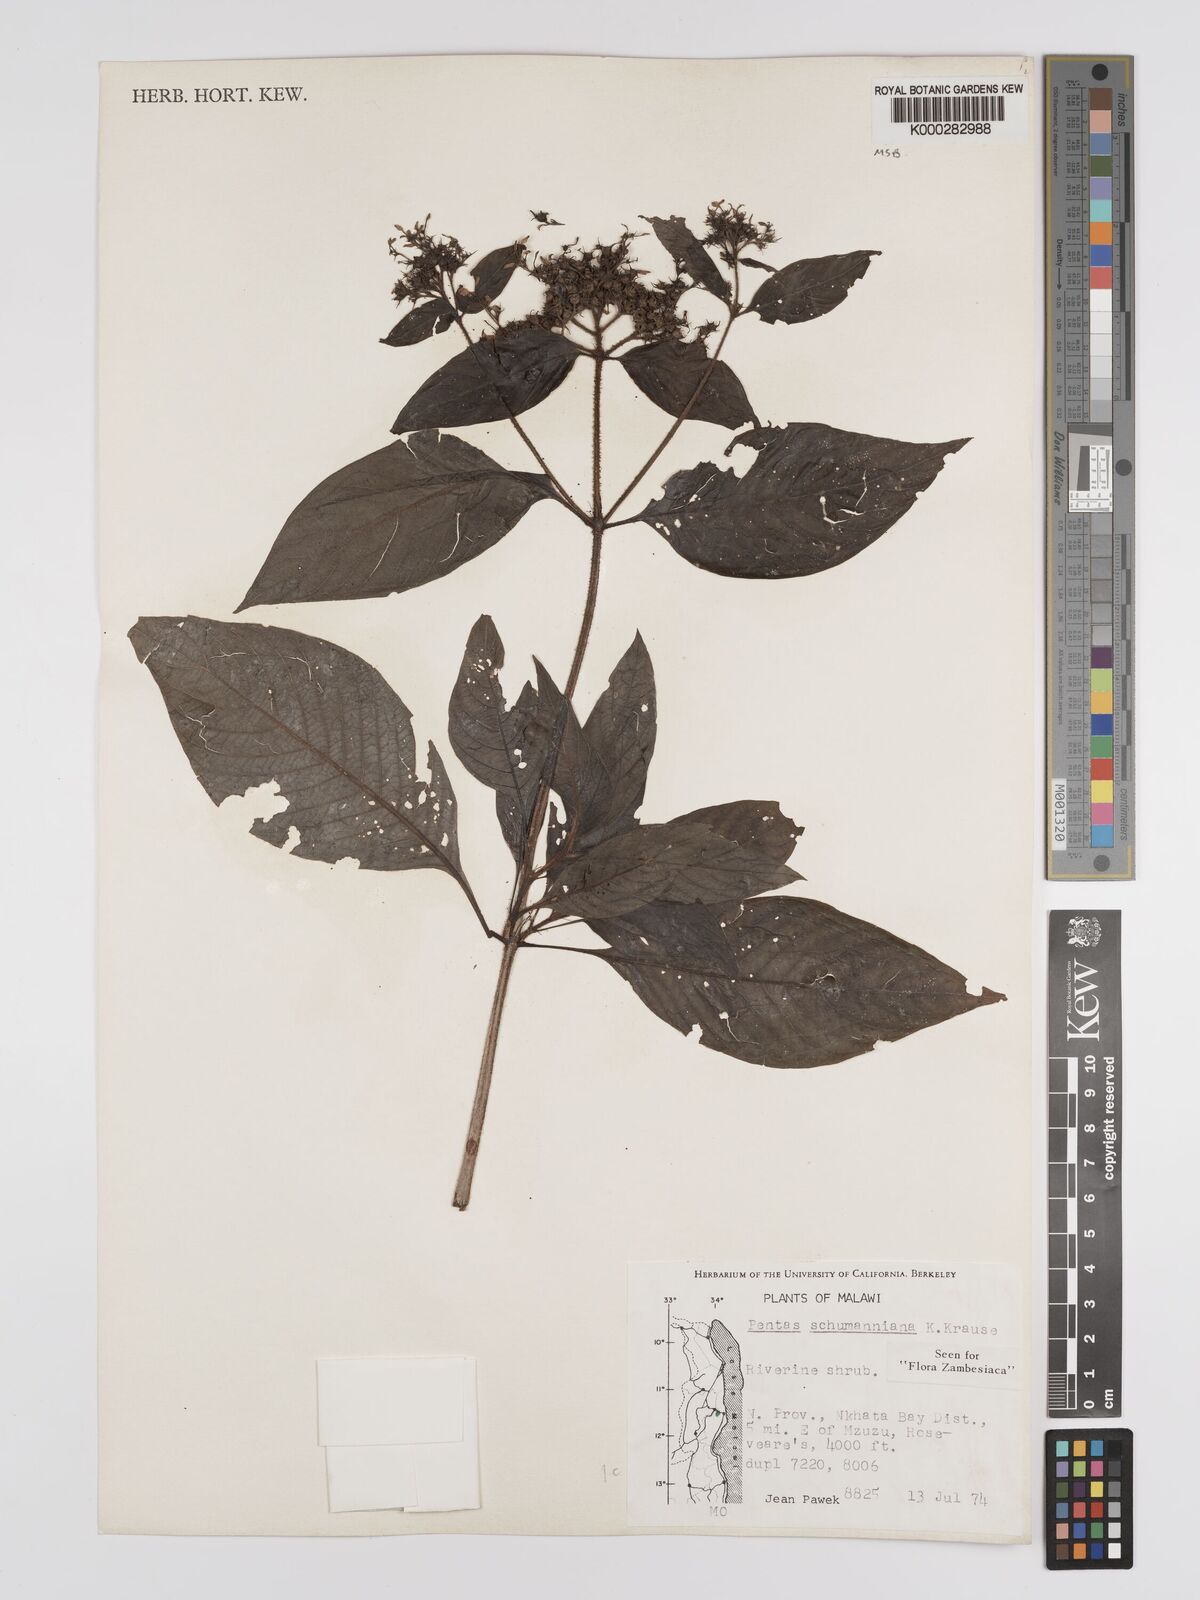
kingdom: Plantae
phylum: Tracheophyta
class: Magnoliopsida
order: Gentianales
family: Rubiaceae
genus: Phyllopentas
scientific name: Phyllopentas schumanniana
